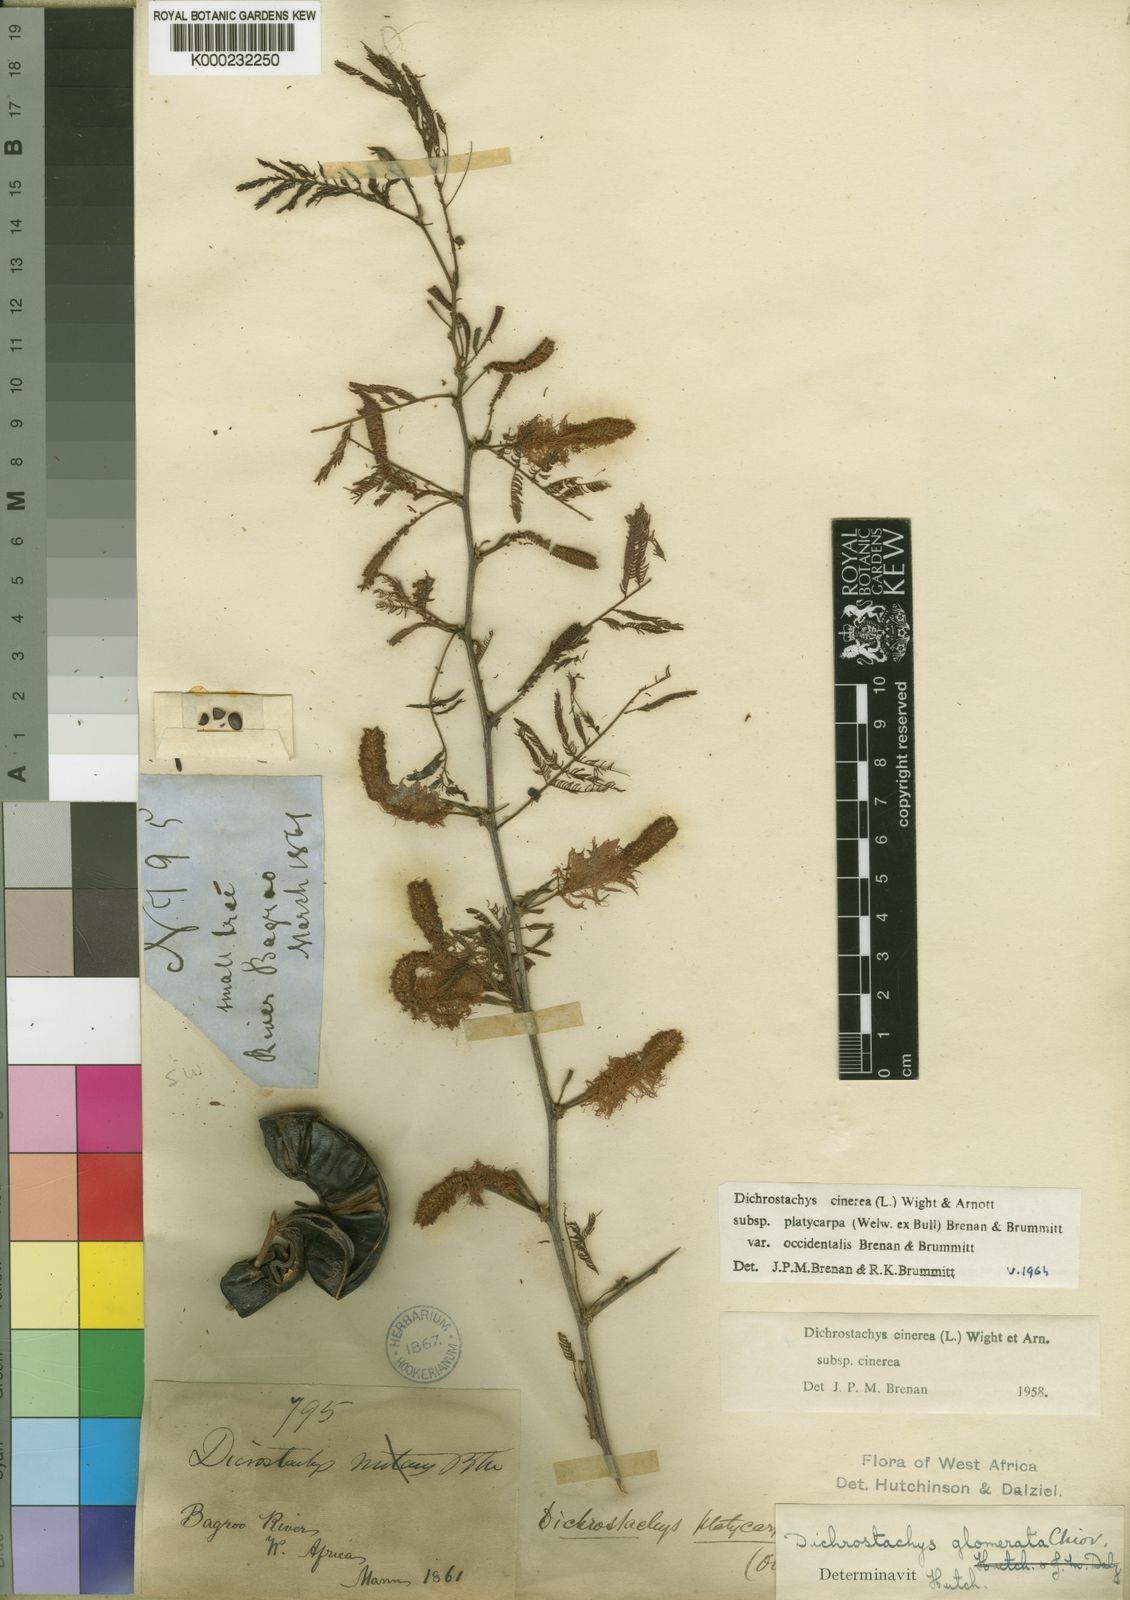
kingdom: Plantae
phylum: Tracheophyta
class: Magnoliopsida
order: Fabales
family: Fabaceae
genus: Dichrostachys
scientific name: Dichrostachys cinerea
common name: Sicklebush
